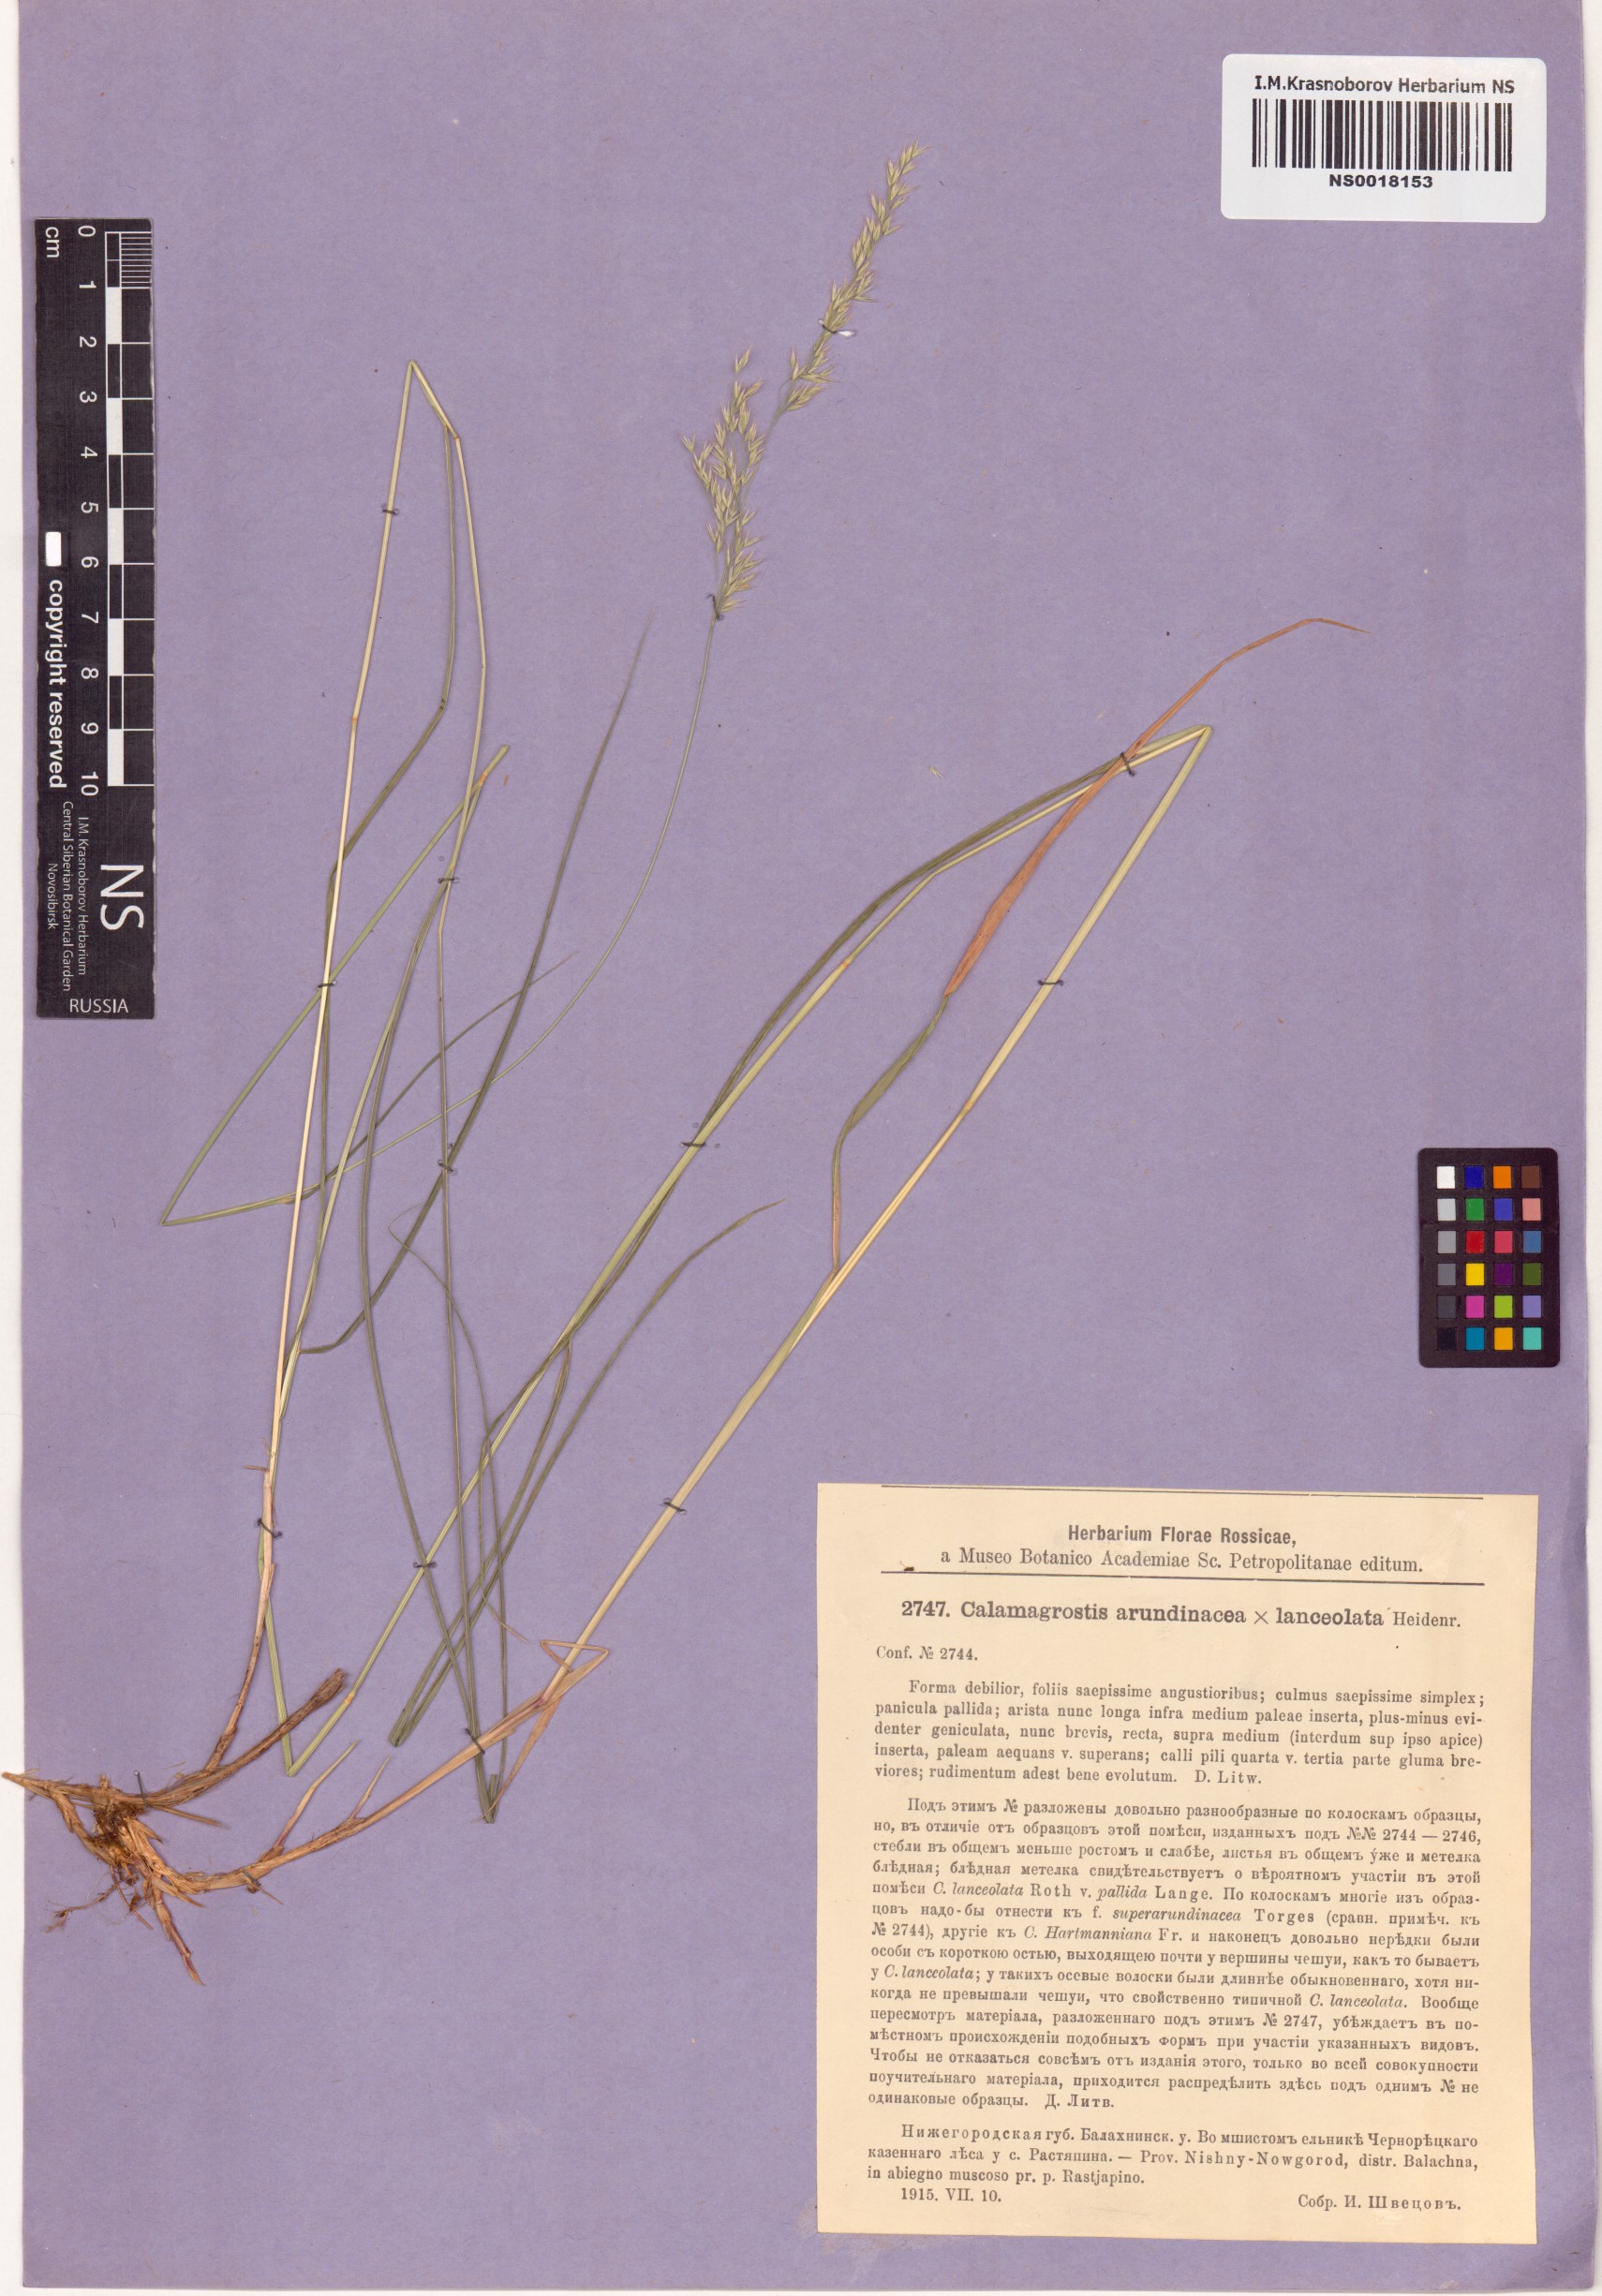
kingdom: Plantae
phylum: Tracheophyta
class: Liliopsida
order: Poales
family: Poaceae
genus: Calamagrostis
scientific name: Calamagrostis arundinacea
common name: Metskastik
